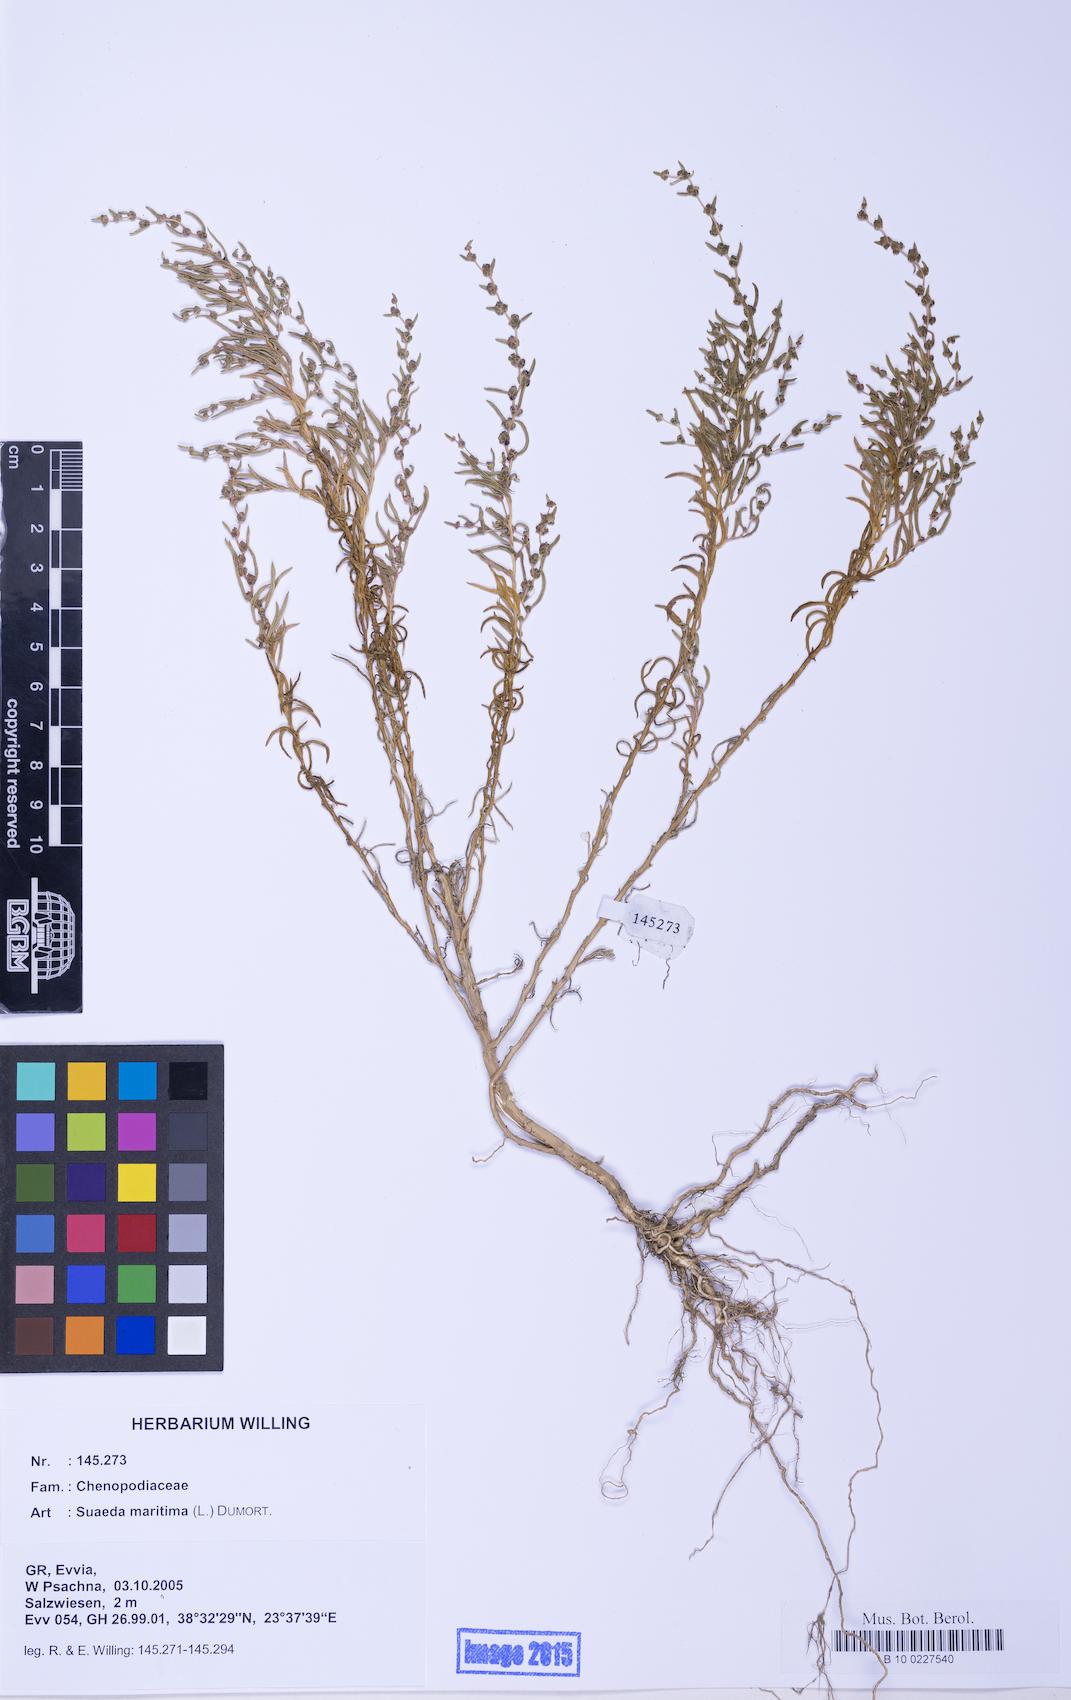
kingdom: Plantae
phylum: Tracheophyta
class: Magnoliopsida
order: Caryophyllales
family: Amaranthaceae
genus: Suaeda
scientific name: Suaeda maritima
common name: Annual sea-blite
